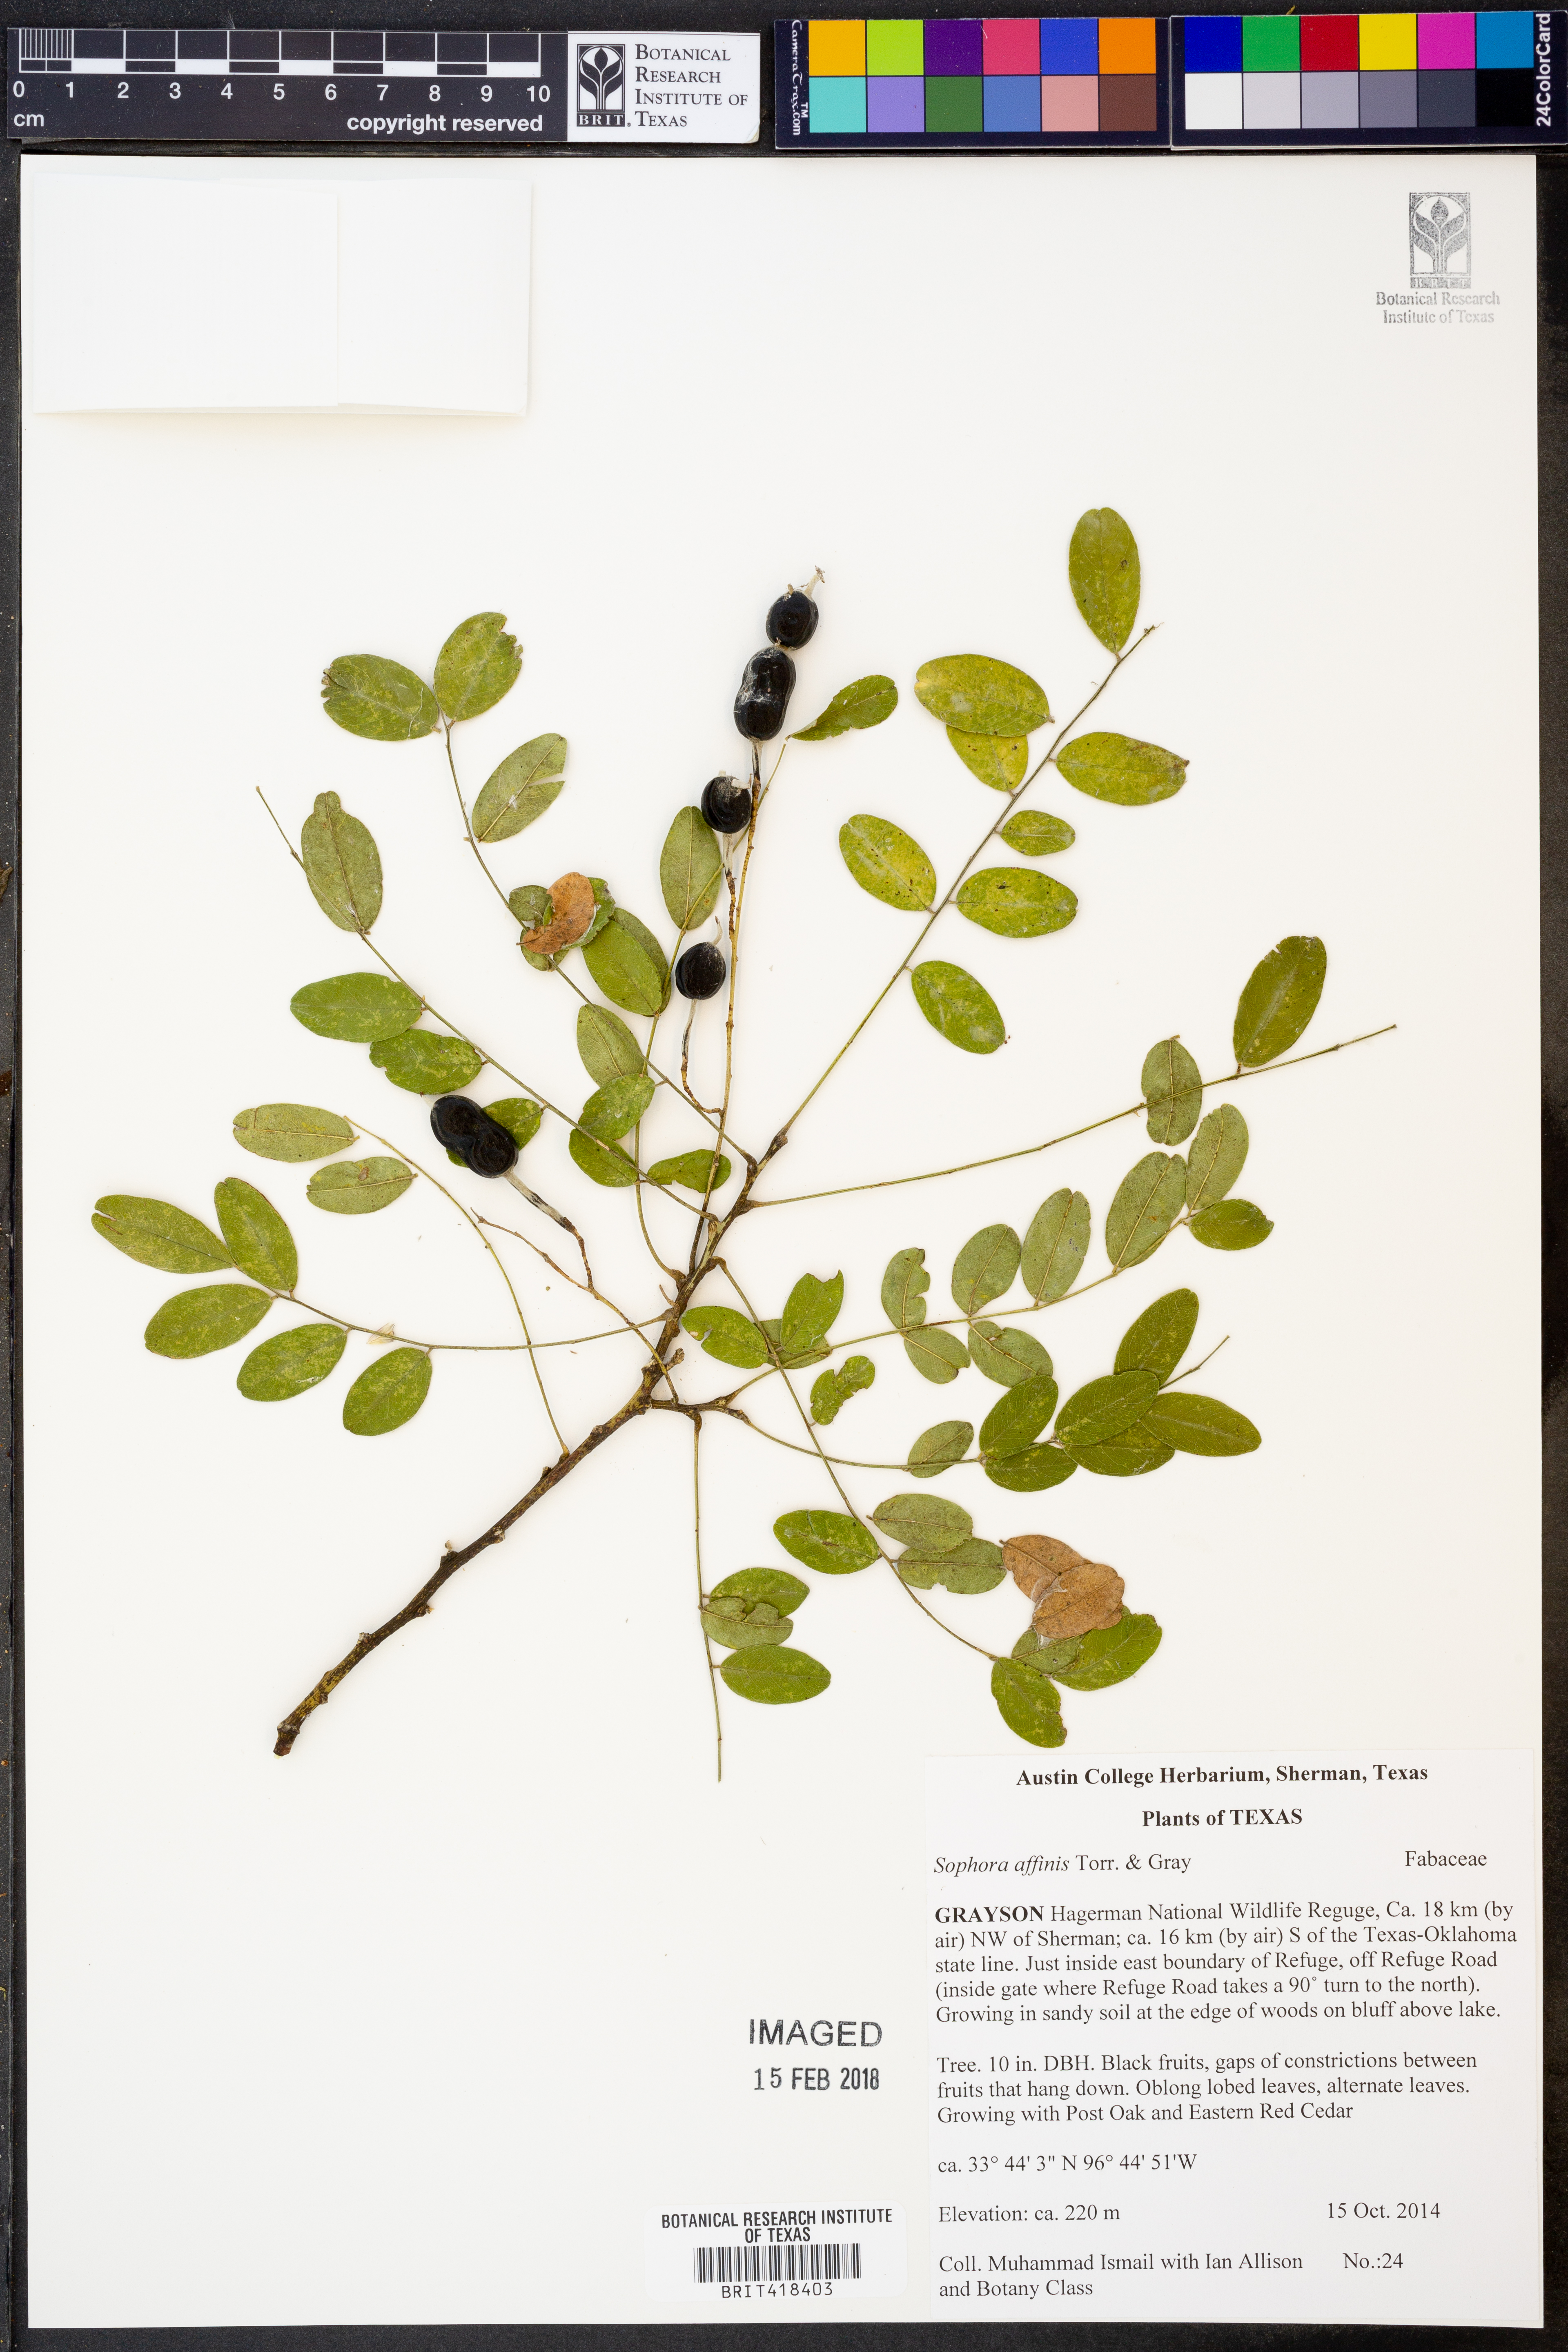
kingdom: Plantae
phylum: Tracheophyta
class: Magnoliopsida
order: Fabales
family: Fabaceae
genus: Styphnolobium
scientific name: Styphnolobium affine
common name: Texas sophora
